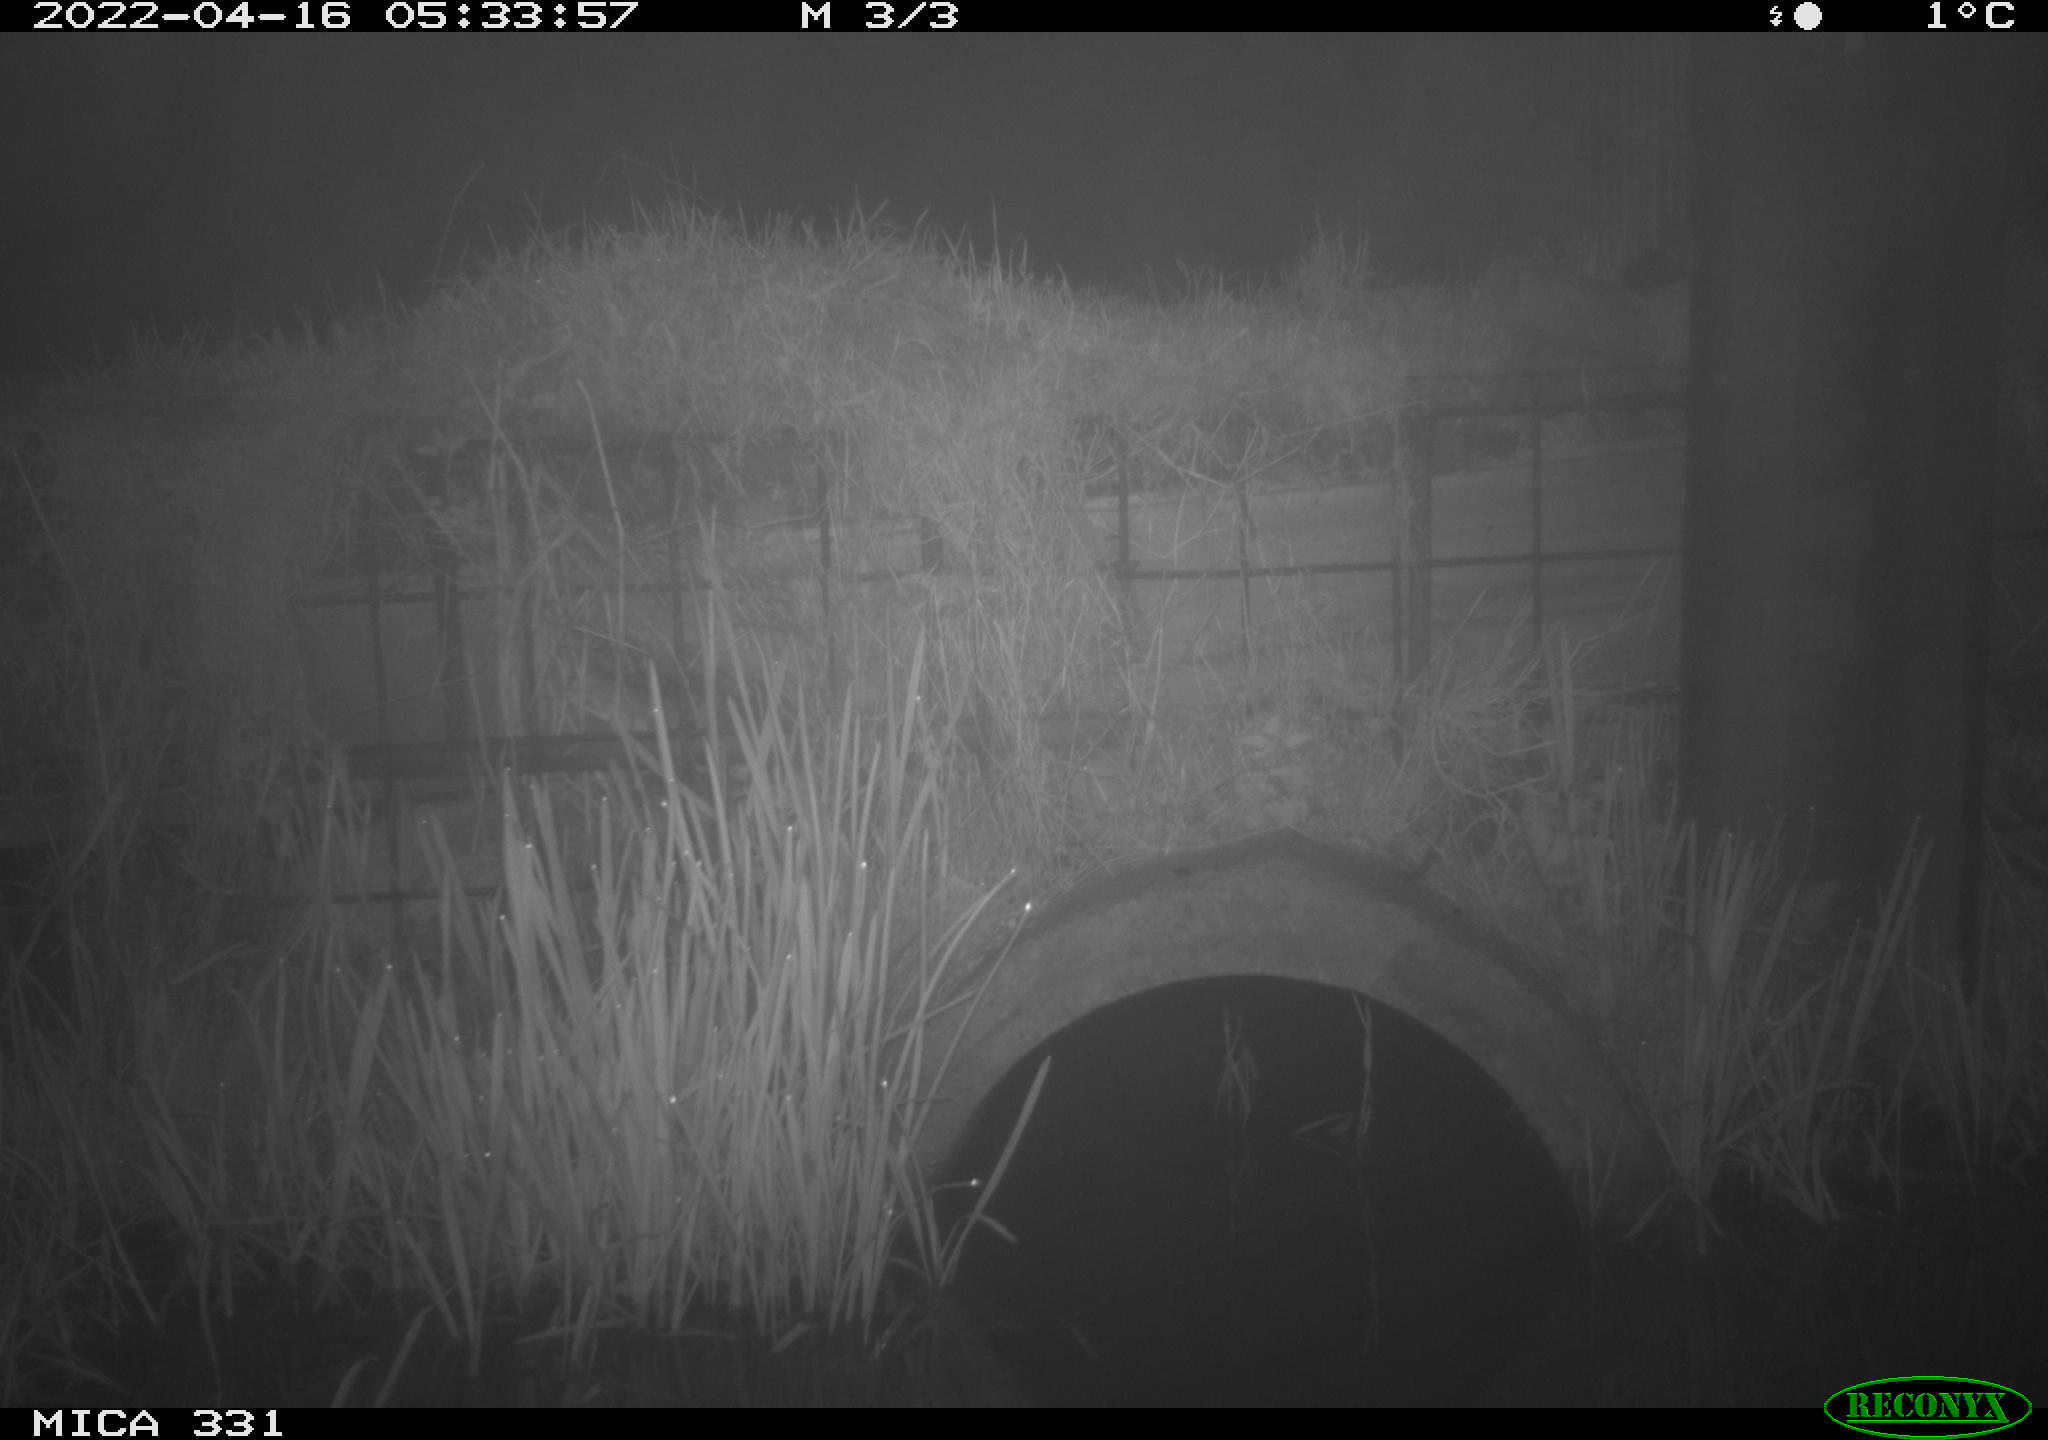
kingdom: Animalia
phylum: Chordata
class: Mammalia
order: Rodentia
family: Muridae
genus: Rattus
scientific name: Rattus norvegicus
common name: Brown rat
